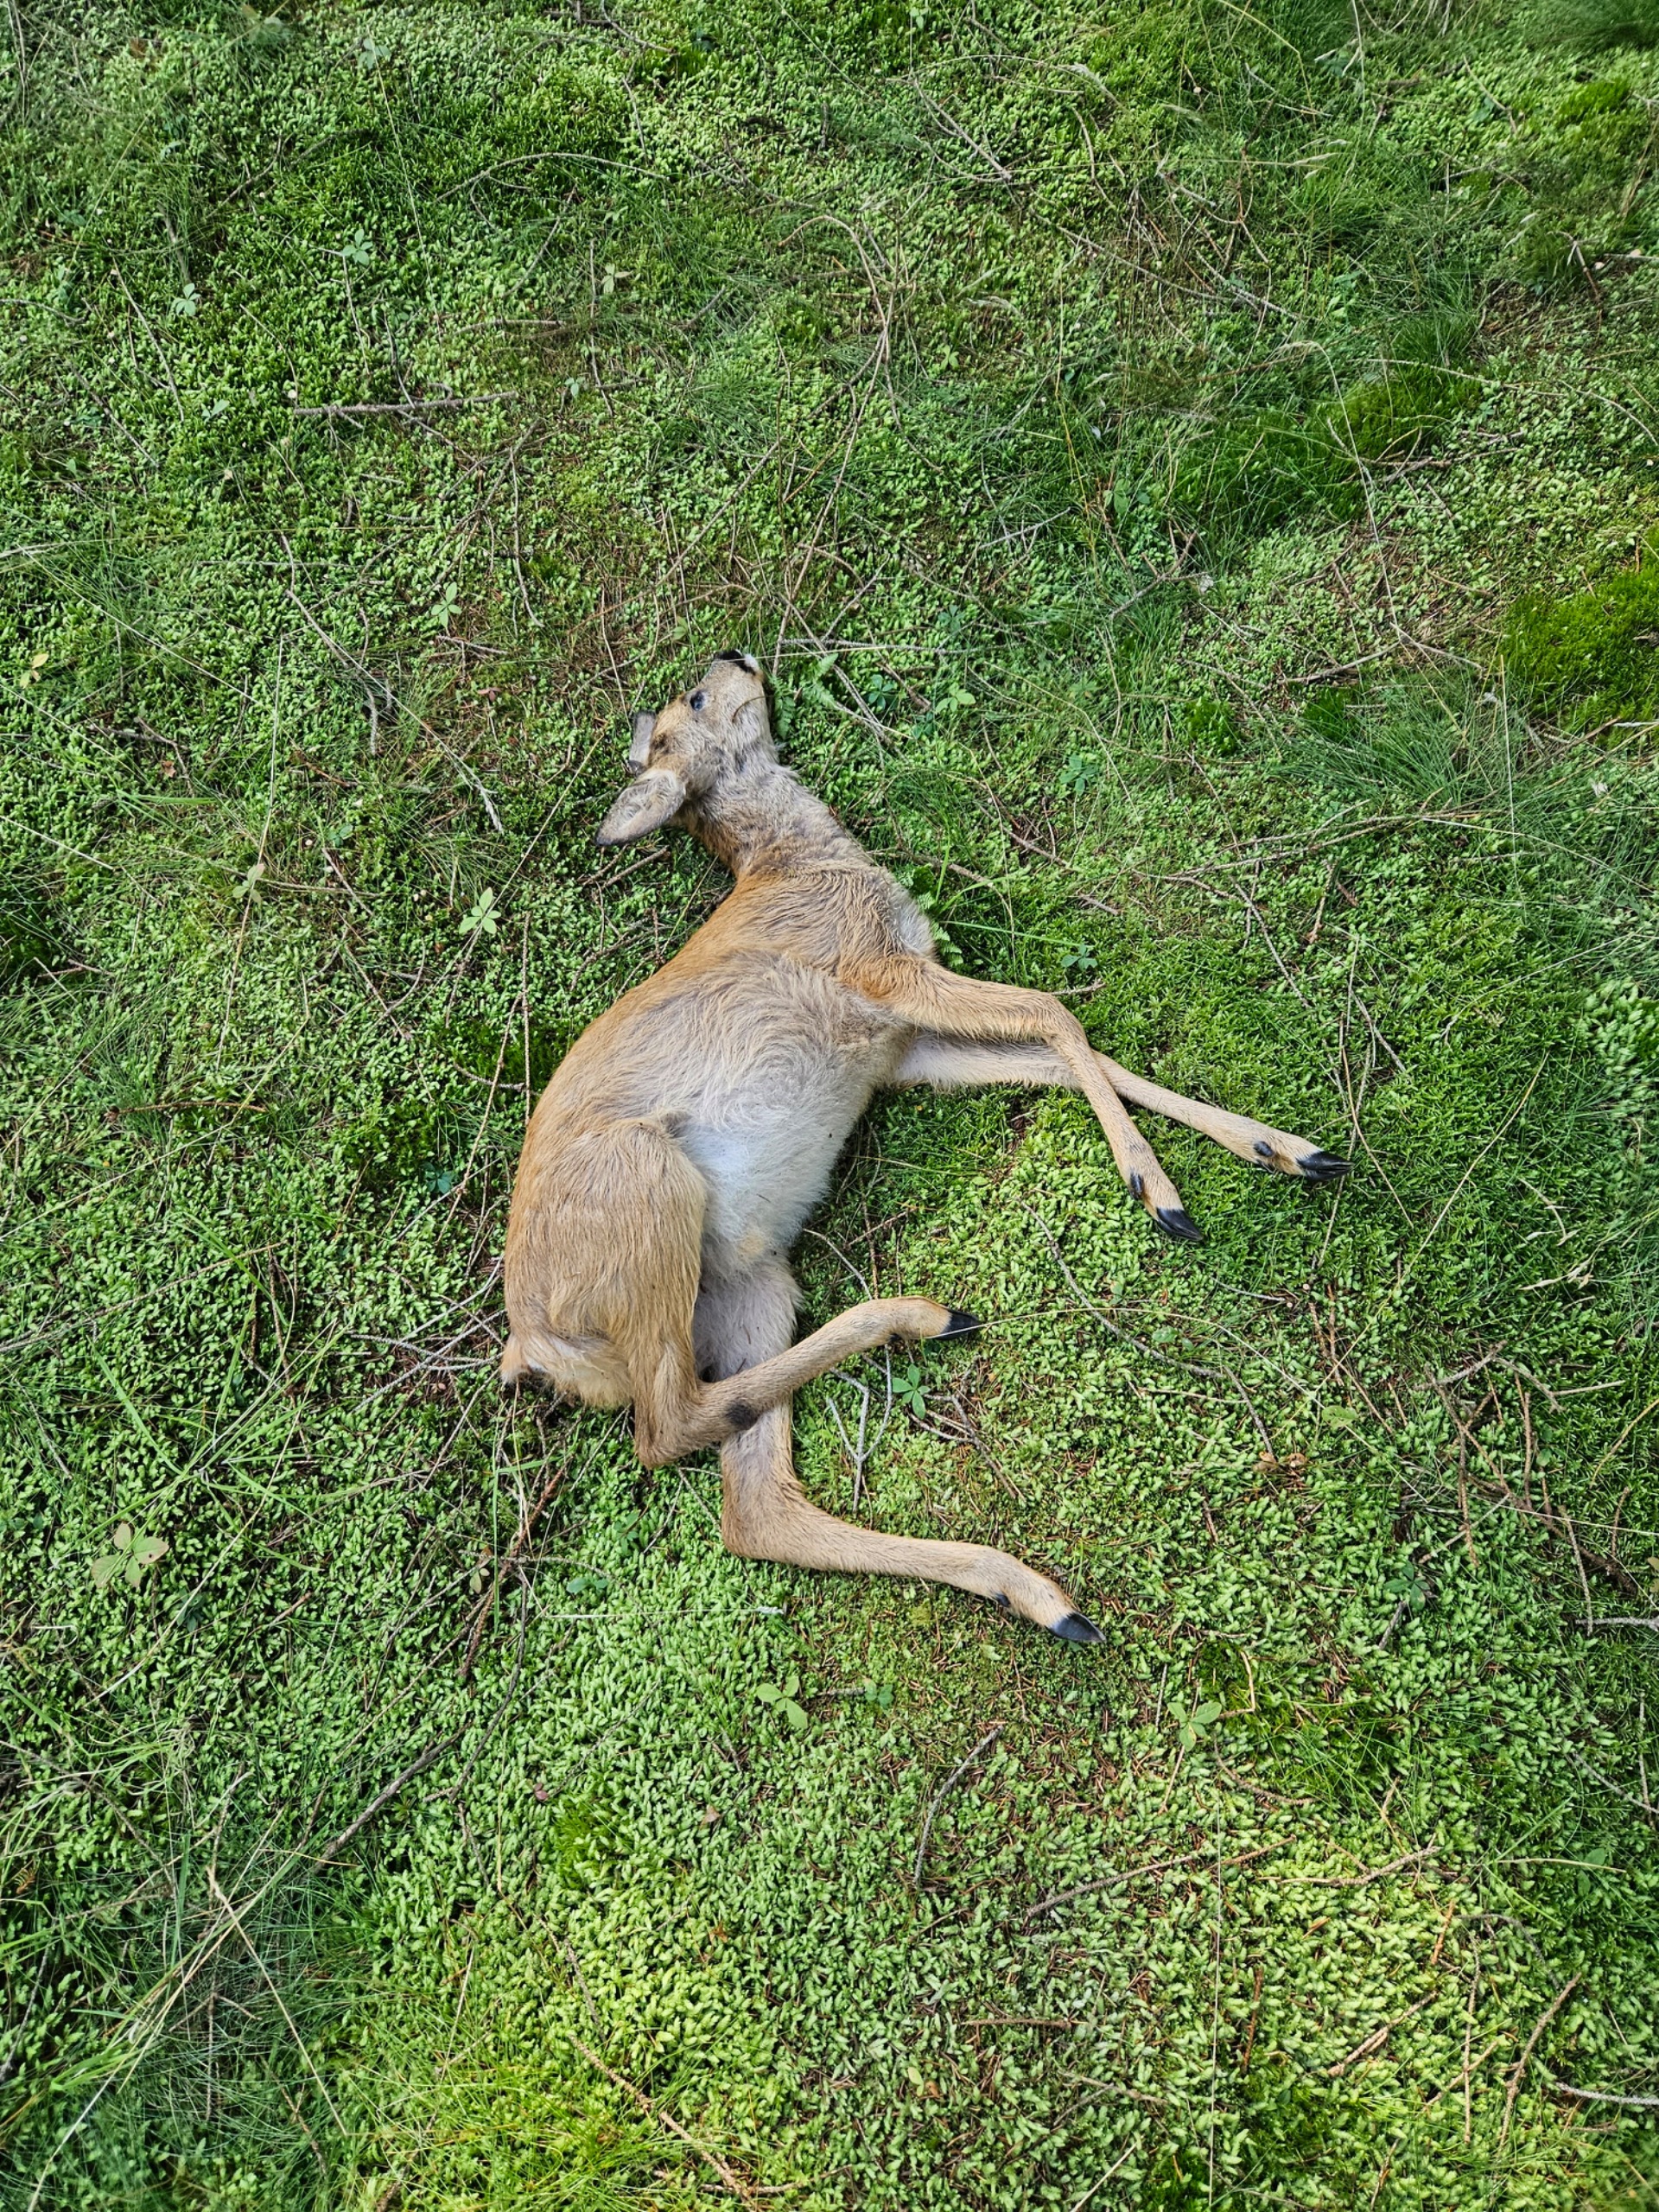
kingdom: Animalia
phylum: Chordata
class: Mammalia
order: Artiodactyla
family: Cervidae
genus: Capreolus
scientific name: Capreolus capreolus
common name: Rådyr
